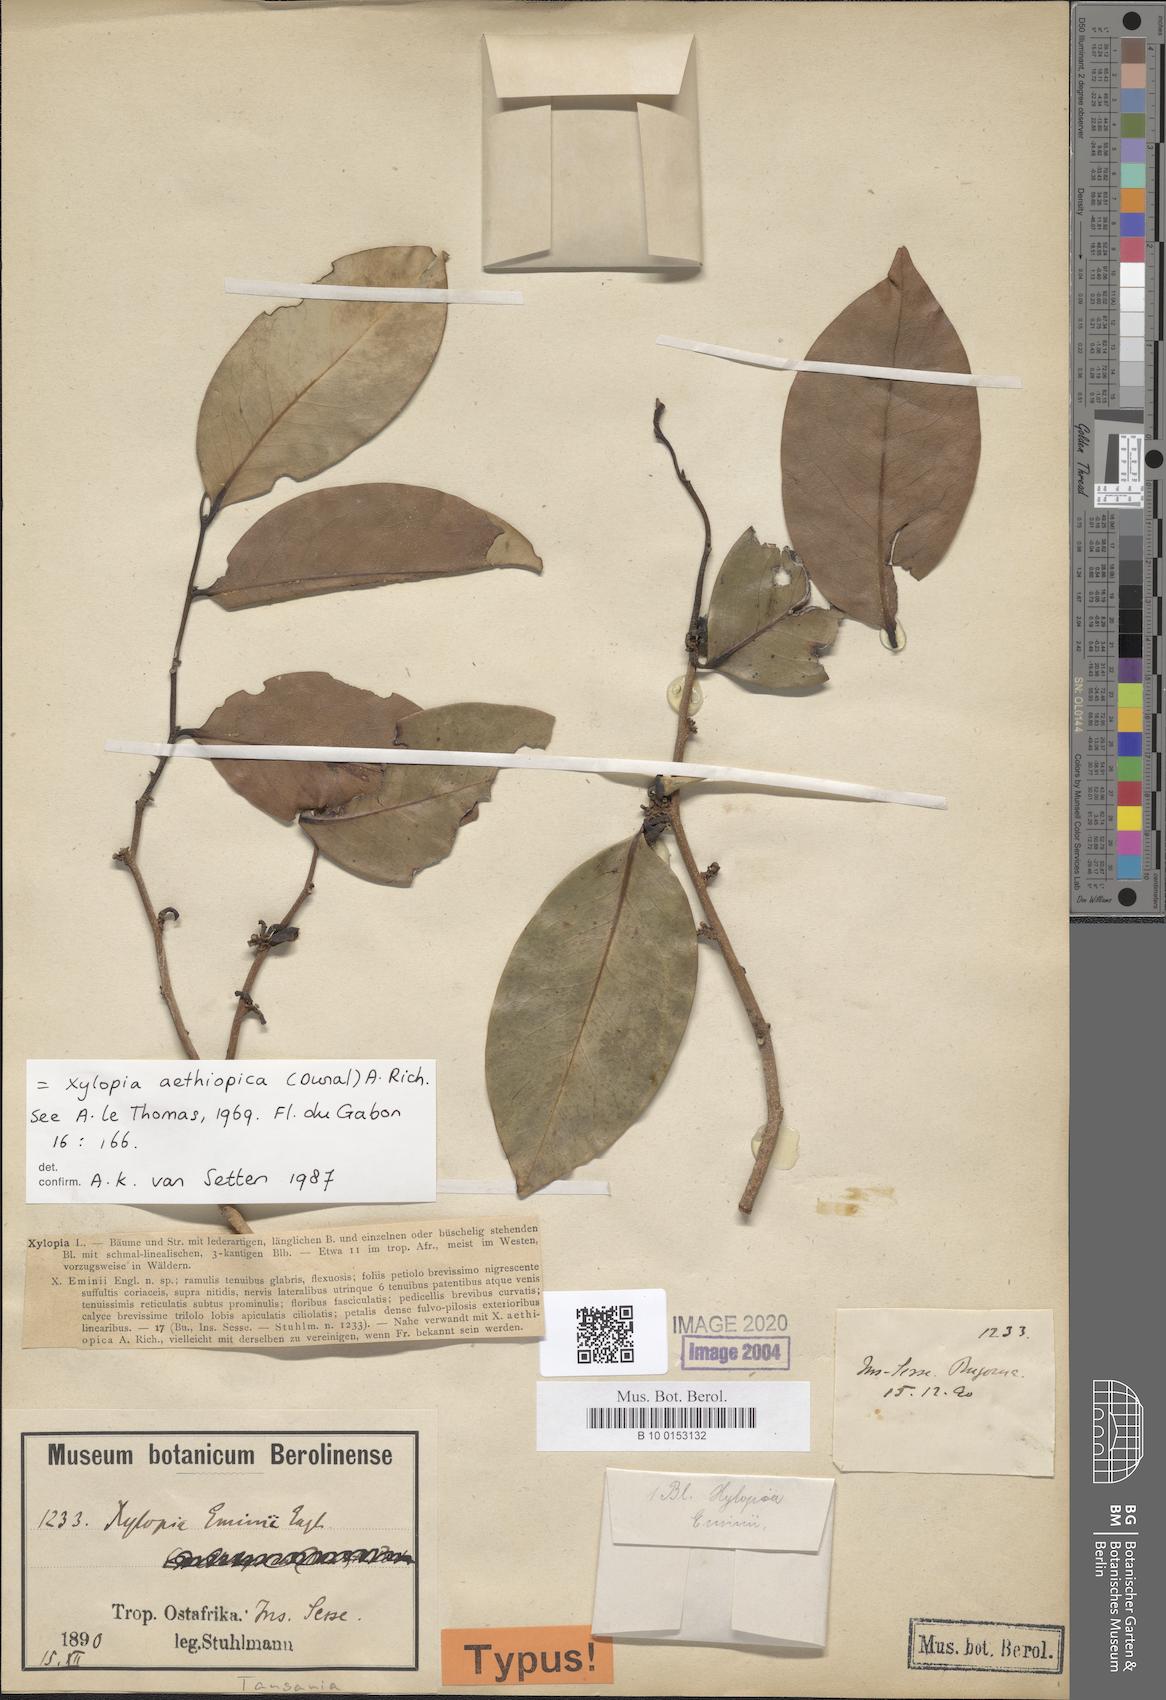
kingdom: Plantae
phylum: Tracheophyta
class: Magnoliopsida
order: Magnoliales
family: Annonaceae
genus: Xylopia
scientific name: Xylopia aethiopica
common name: Ethiopian-pepper
